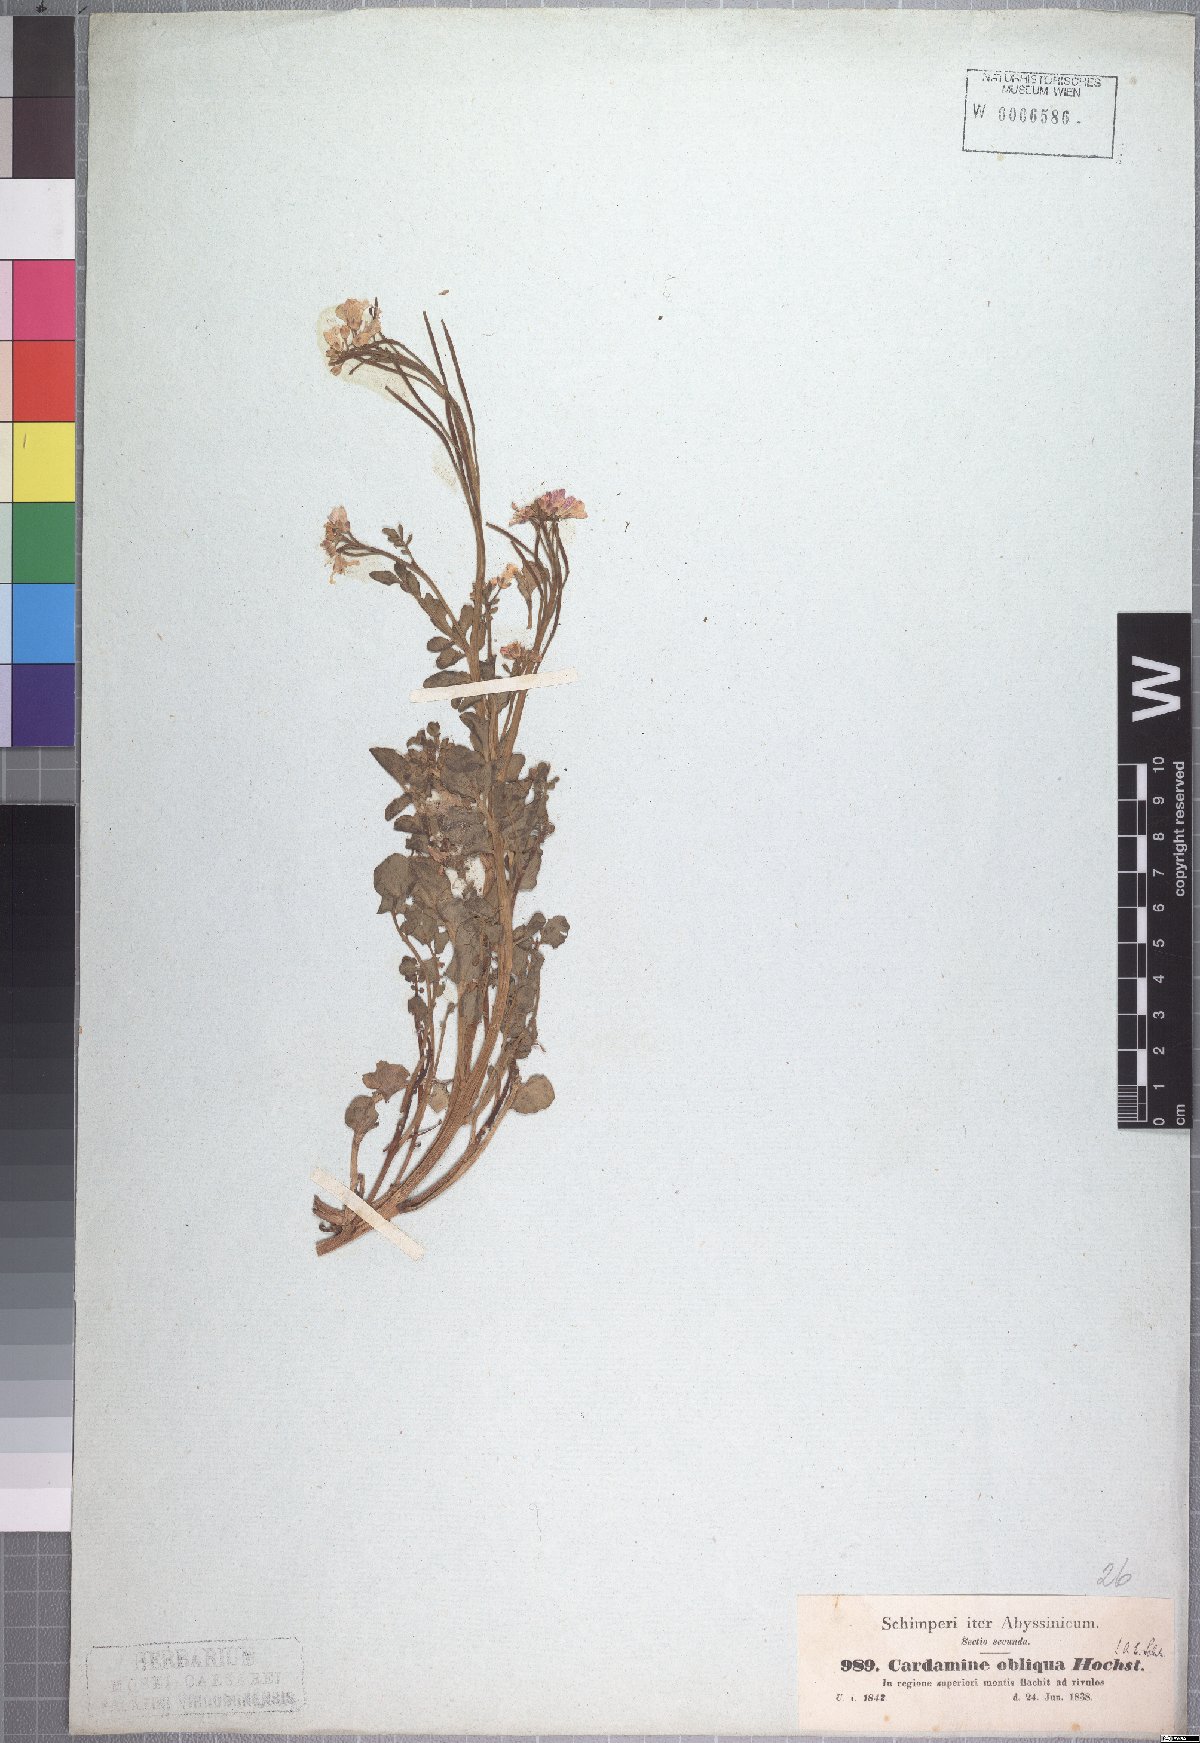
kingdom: Plantae
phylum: Tracheophyta
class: Magnoliopsida
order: Brassicales
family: Brassicaceae
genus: Cardamine
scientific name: Cardamine obliqua
